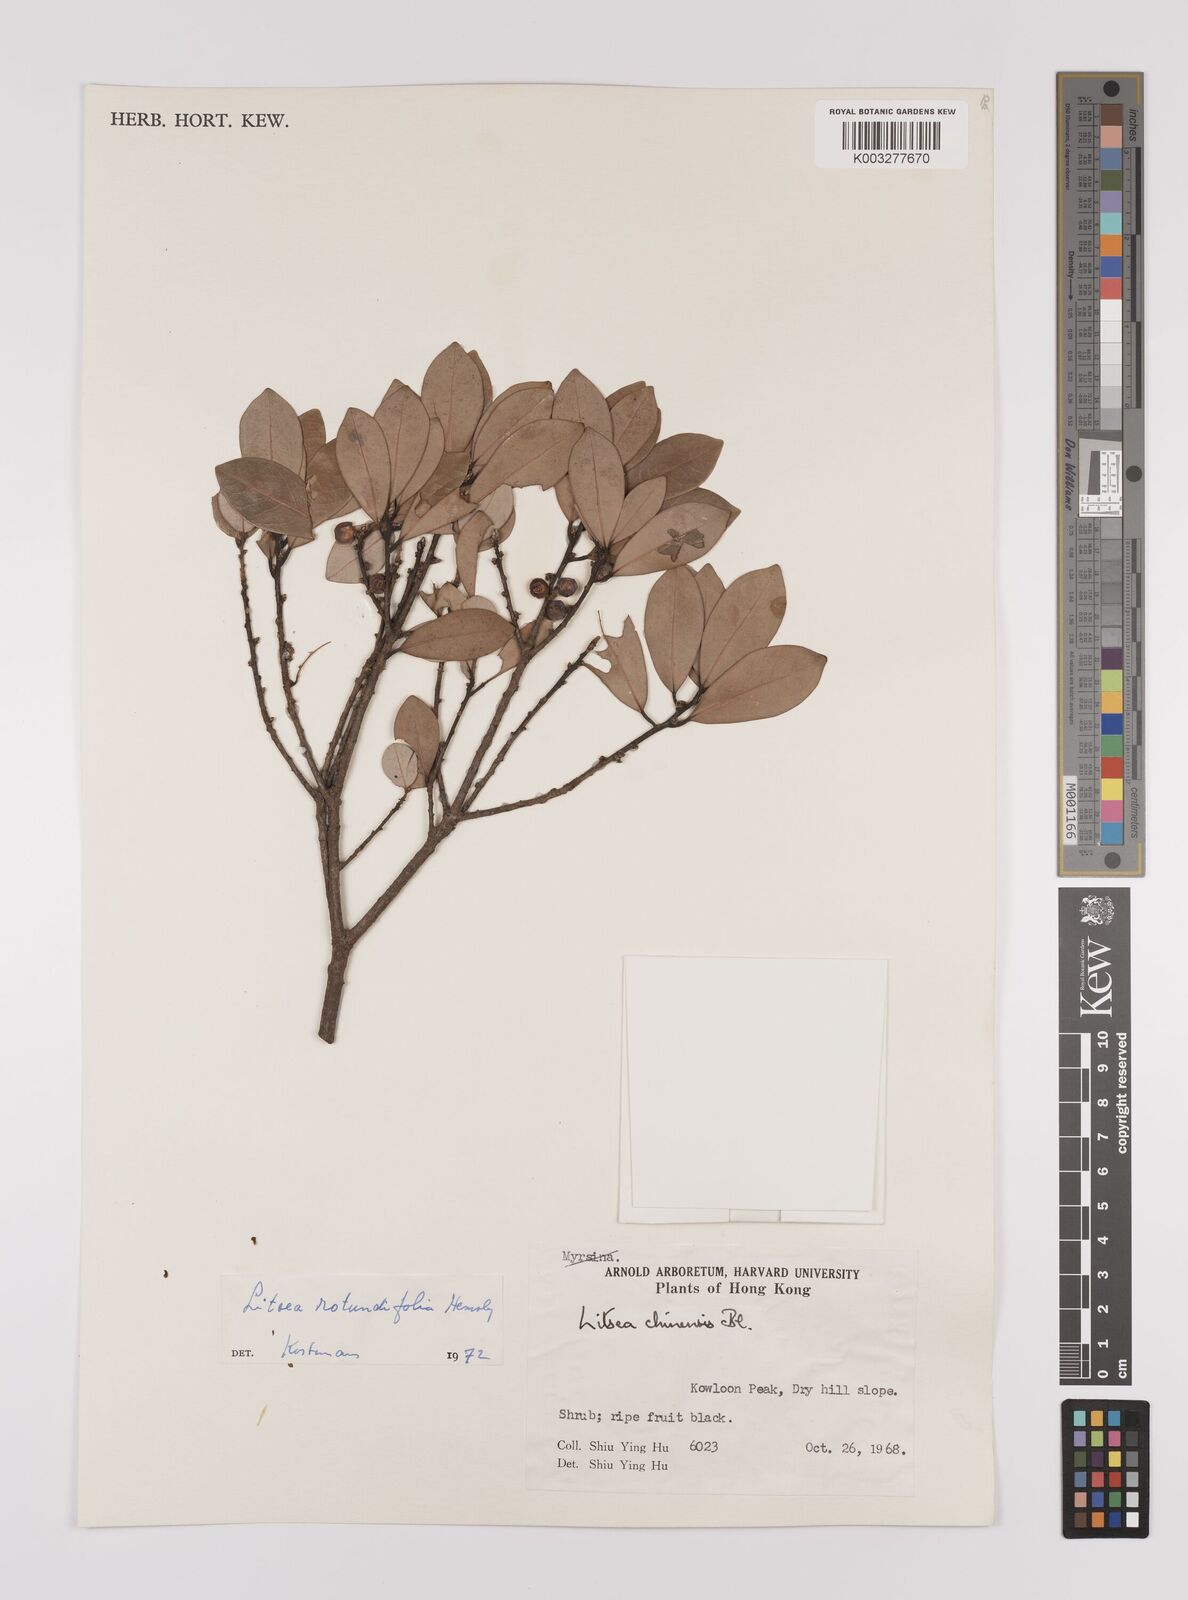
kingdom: Plantae
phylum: Tracheophyta
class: Magnoliopsida
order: Laurales
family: Lauraceae
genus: Litsea
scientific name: Litsea rotundifolia
